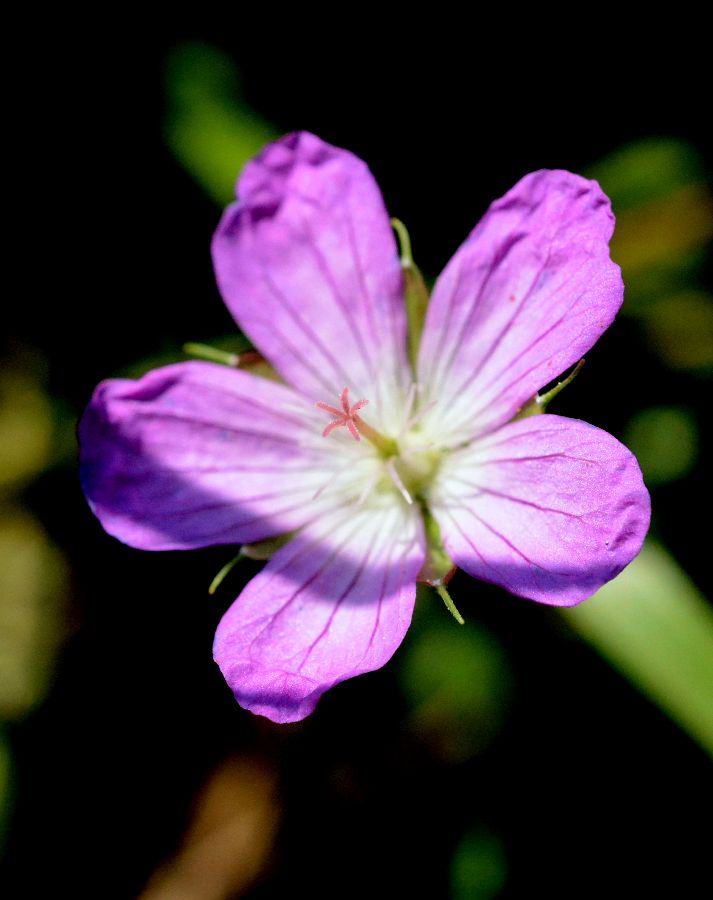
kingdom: Plantae
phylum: Tracheophyta
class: Magnoliopsida
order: Geraniales
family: Geraniaceae
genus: Geranium
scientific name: Geranium palustre
